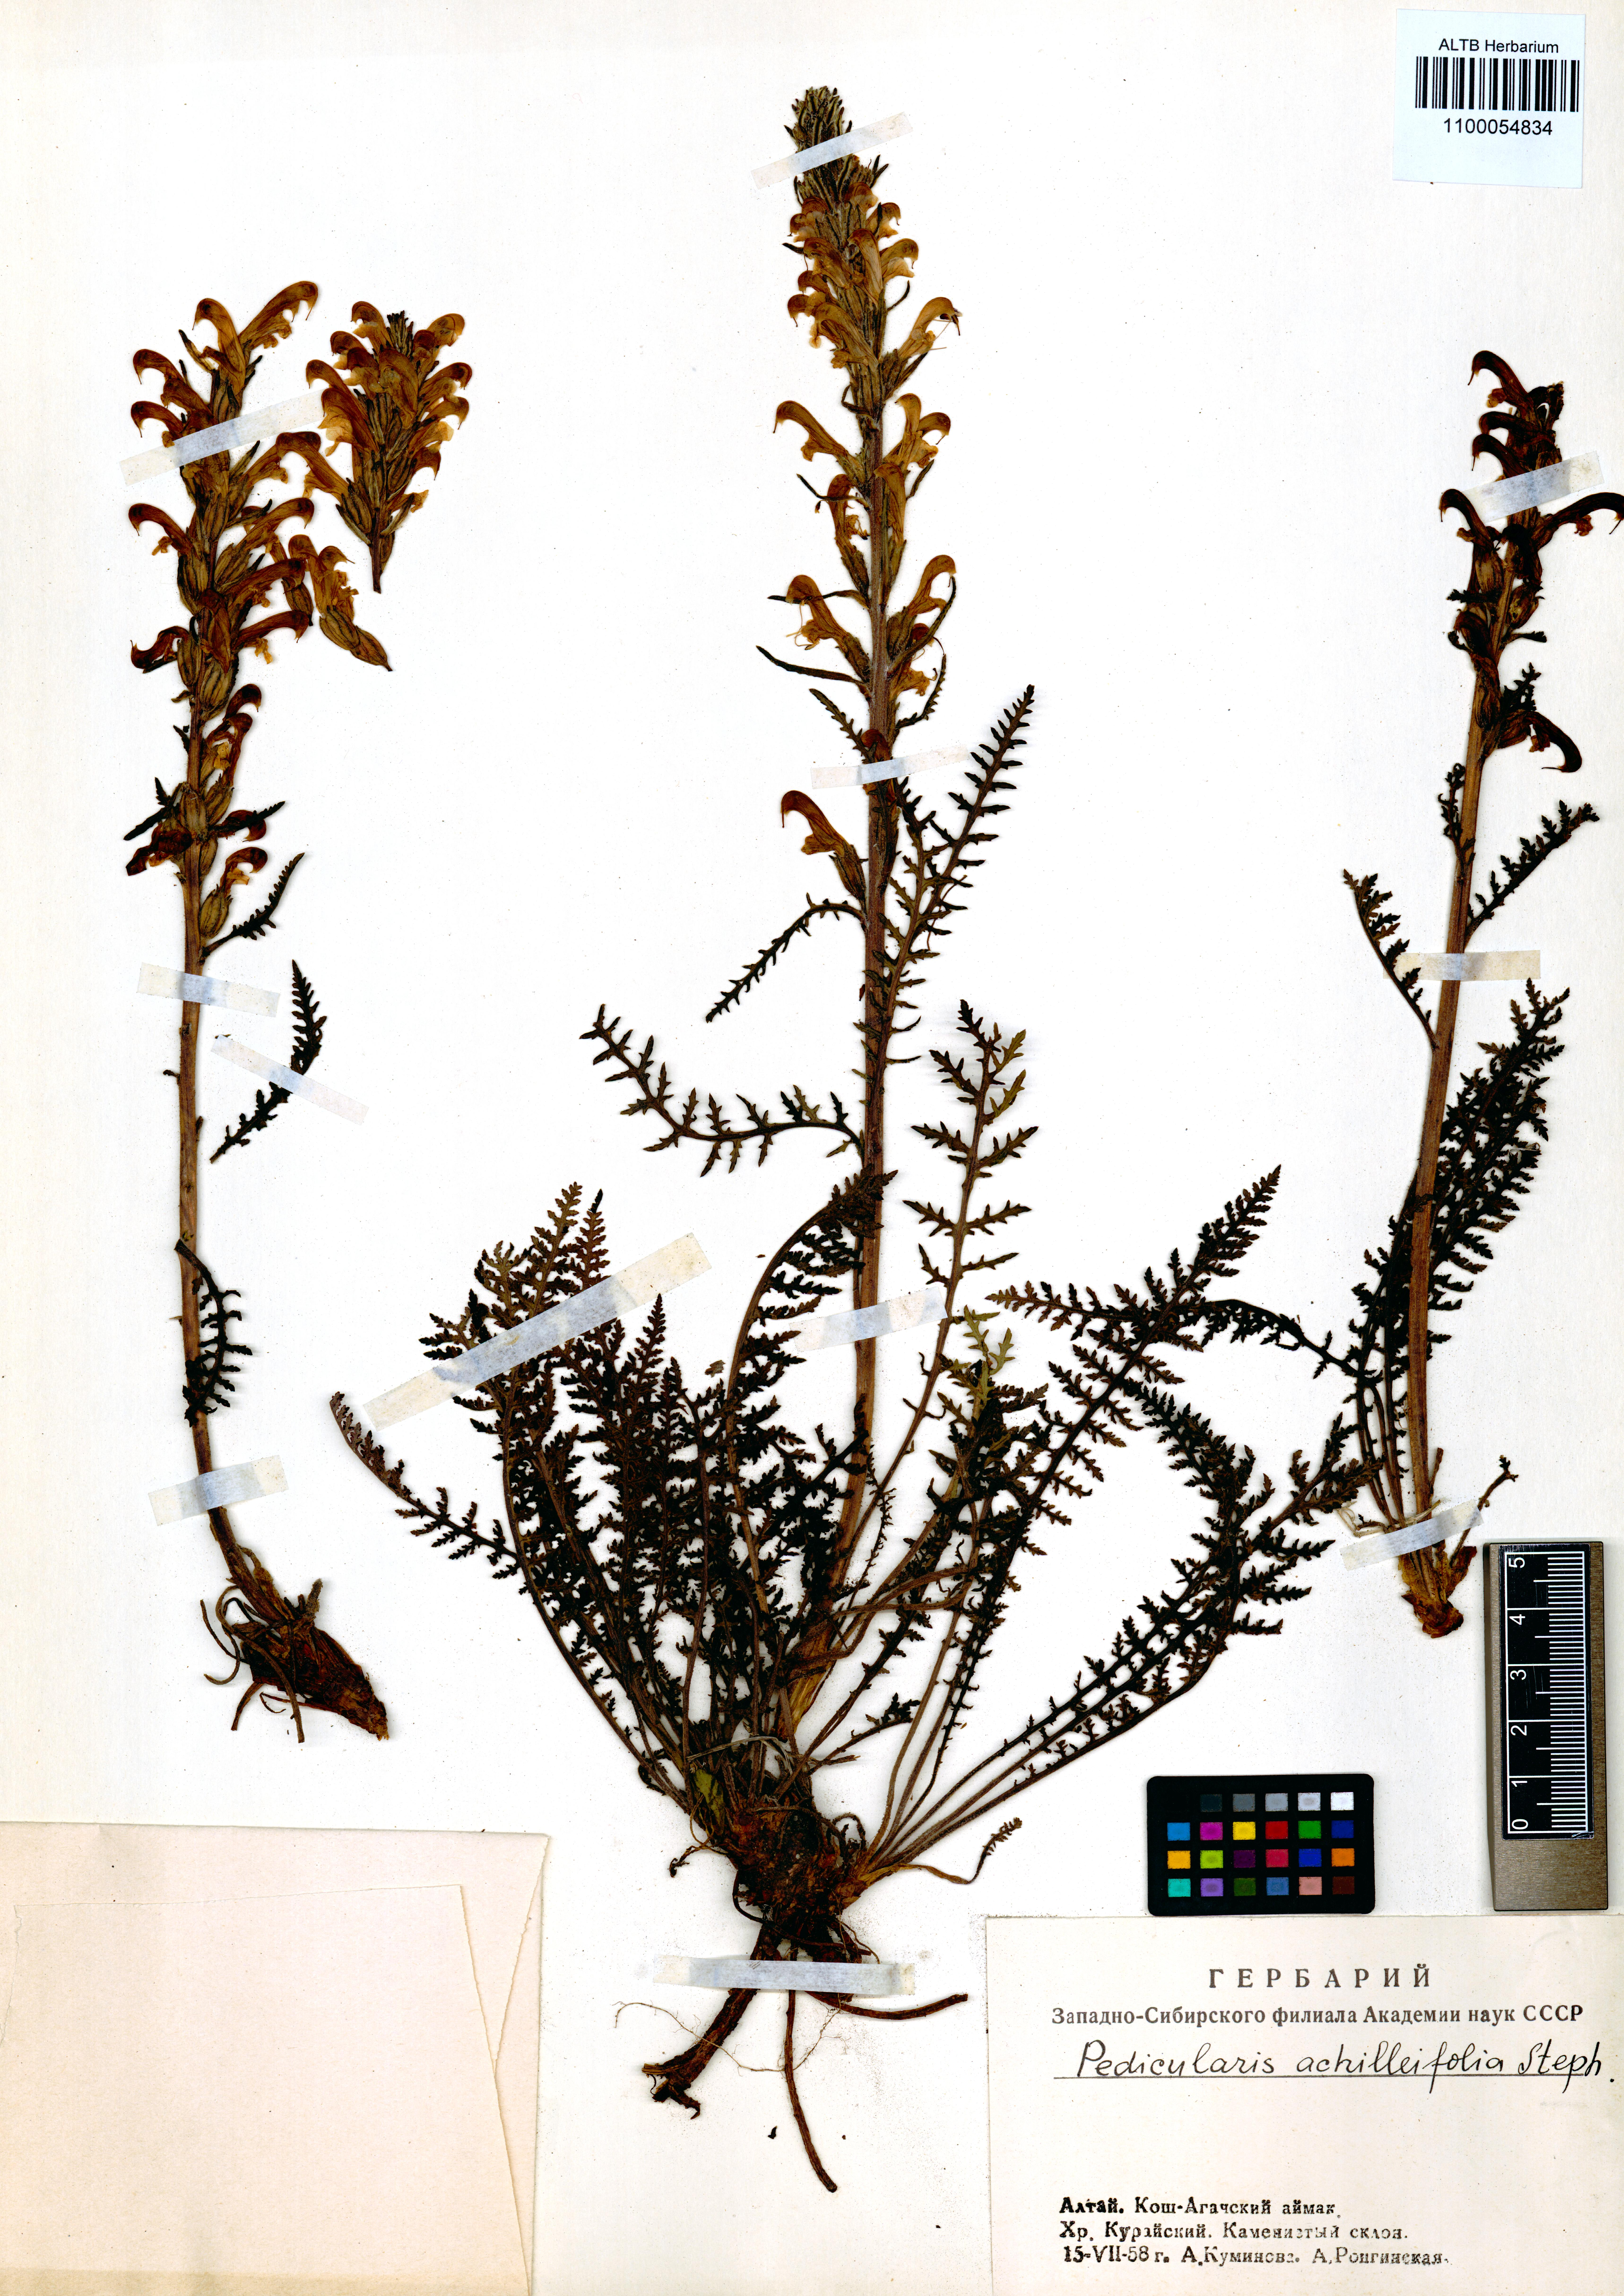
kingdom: Plantae
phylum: Tracheophyta
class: Magnoliopsida
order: Lamiales
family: Orobanchaceae
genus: Pedicularis
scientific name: Pedicularis achilleifolia
